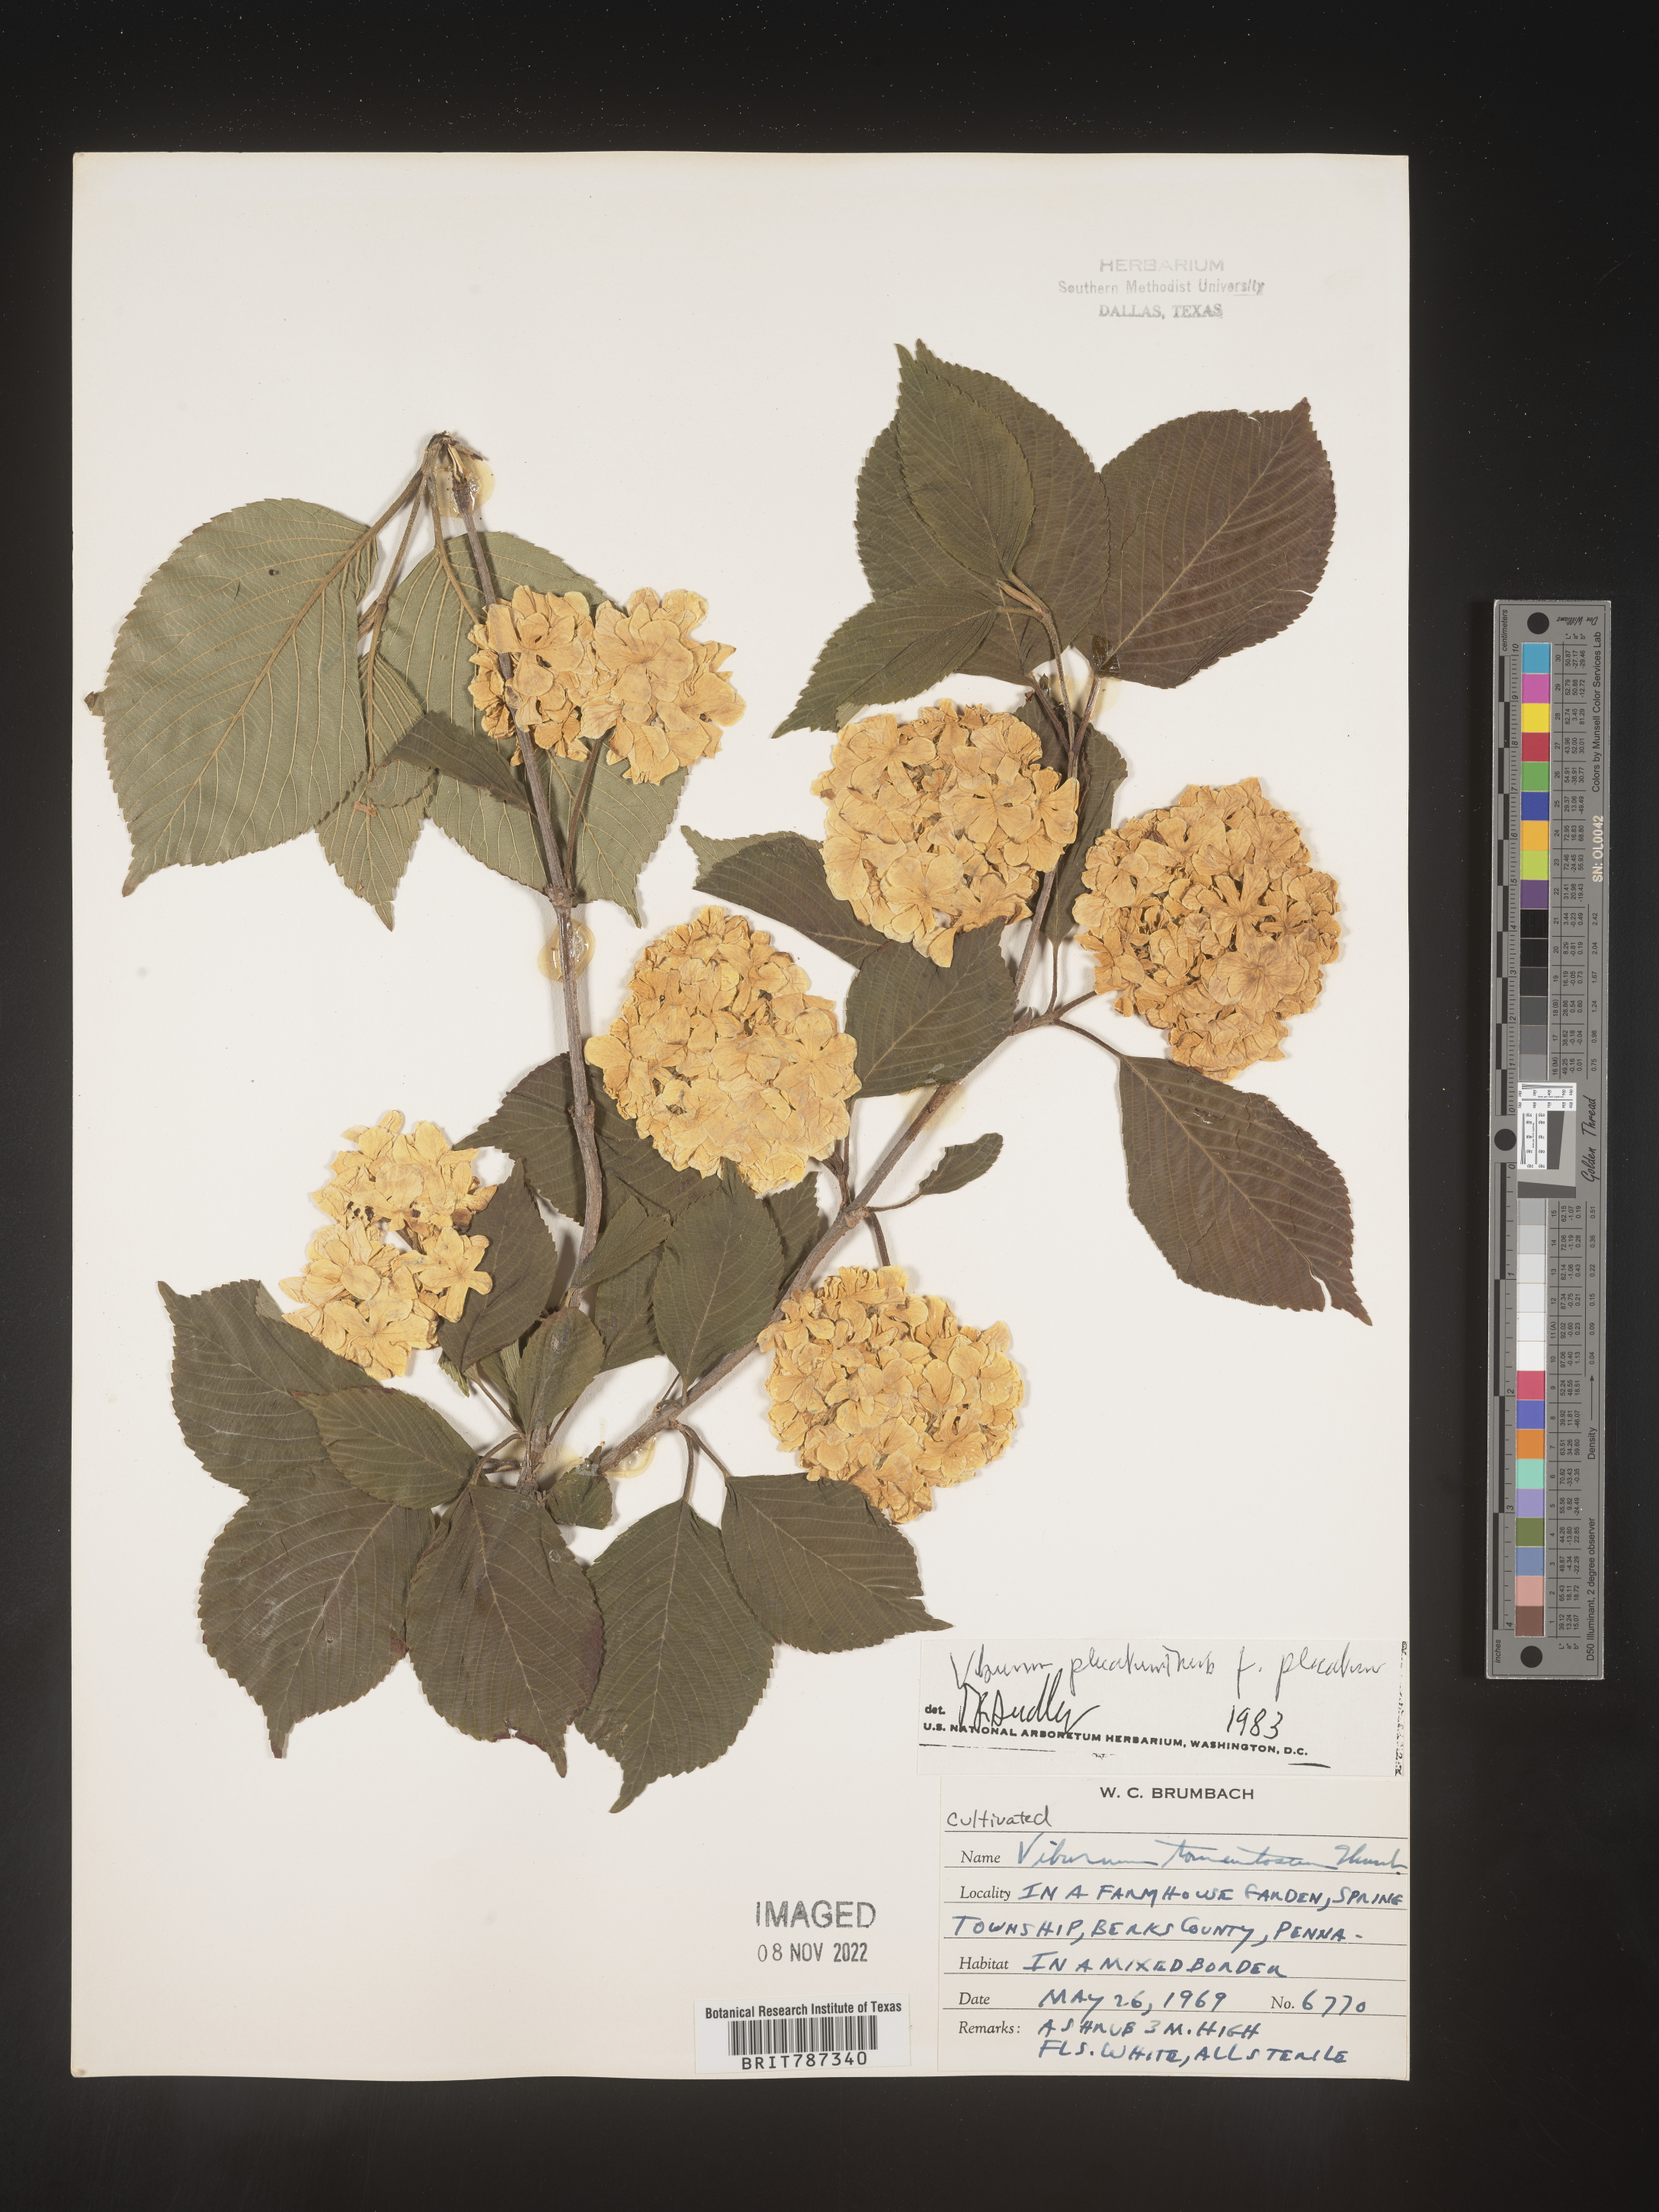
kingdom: Plantae
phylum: Tracheophyta
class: Magnoliopsida
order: Dipsacales
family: Viburnaceae
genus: Viburnum
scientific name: Viburnum
